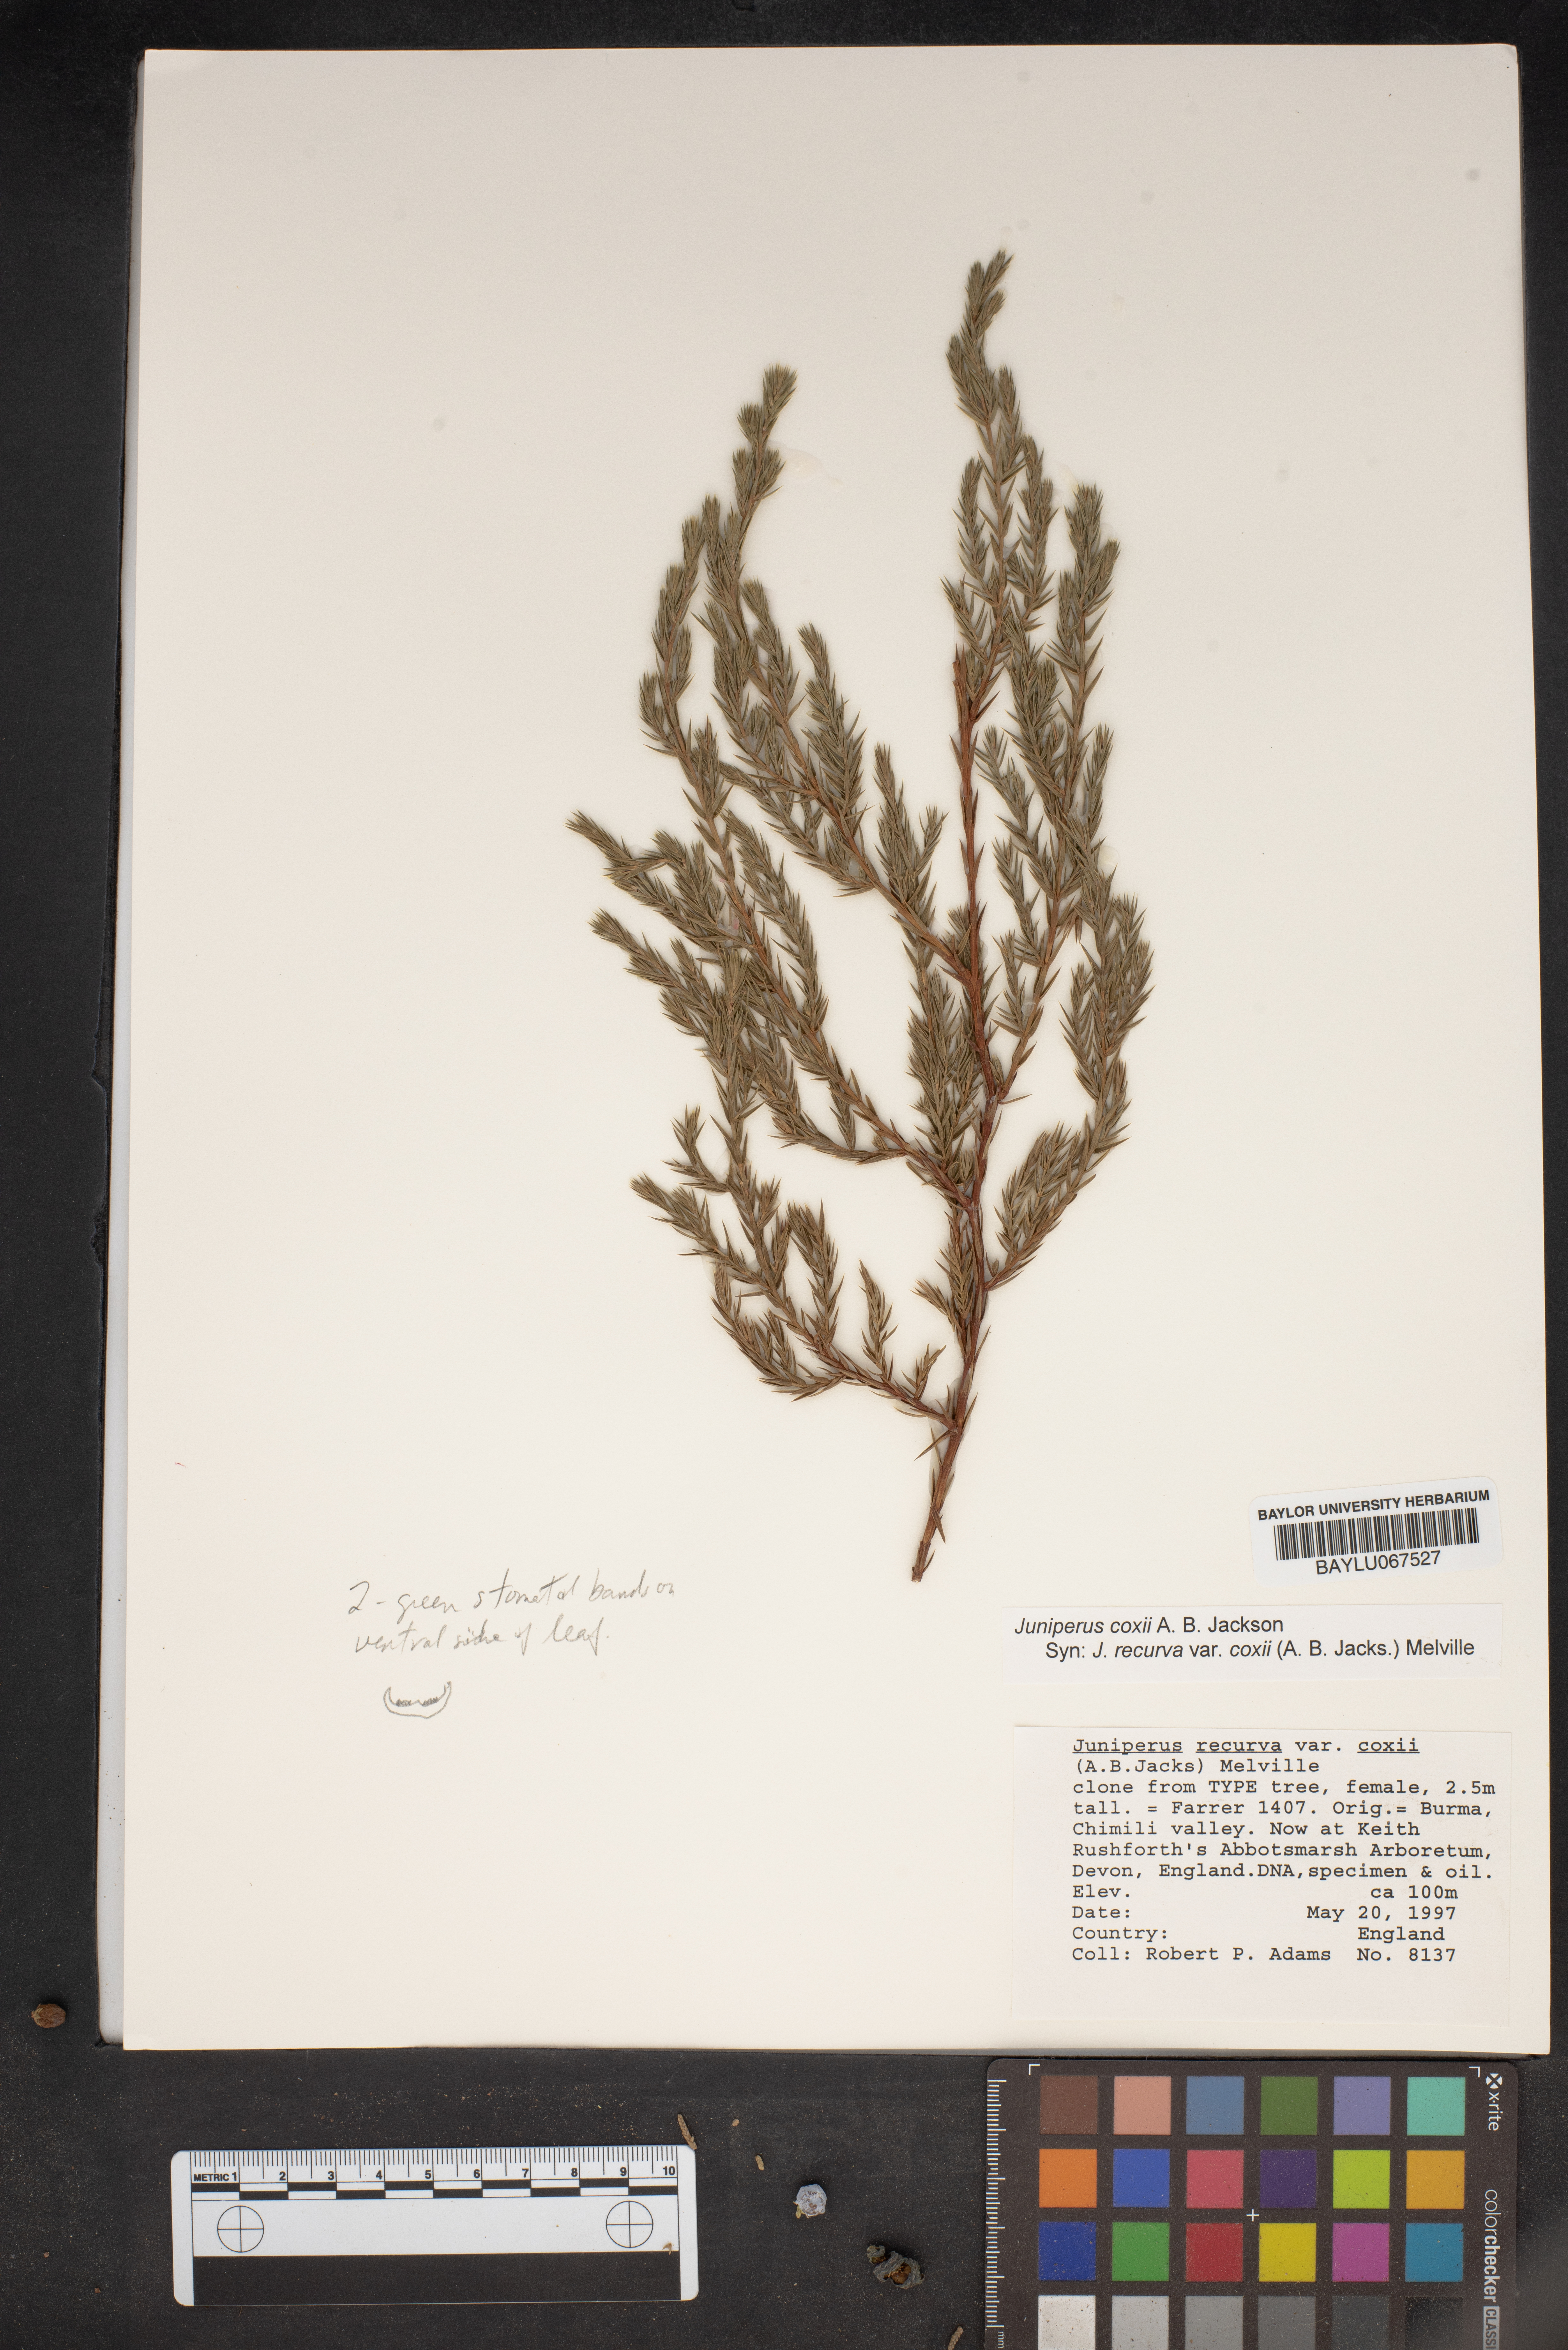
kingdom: Plantae
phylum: Tracheophyta
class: Pinopsida
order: Pinales
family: Cupressaceae
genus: Juniperus
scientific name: Juniperus recurva
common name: Drooping juniper
